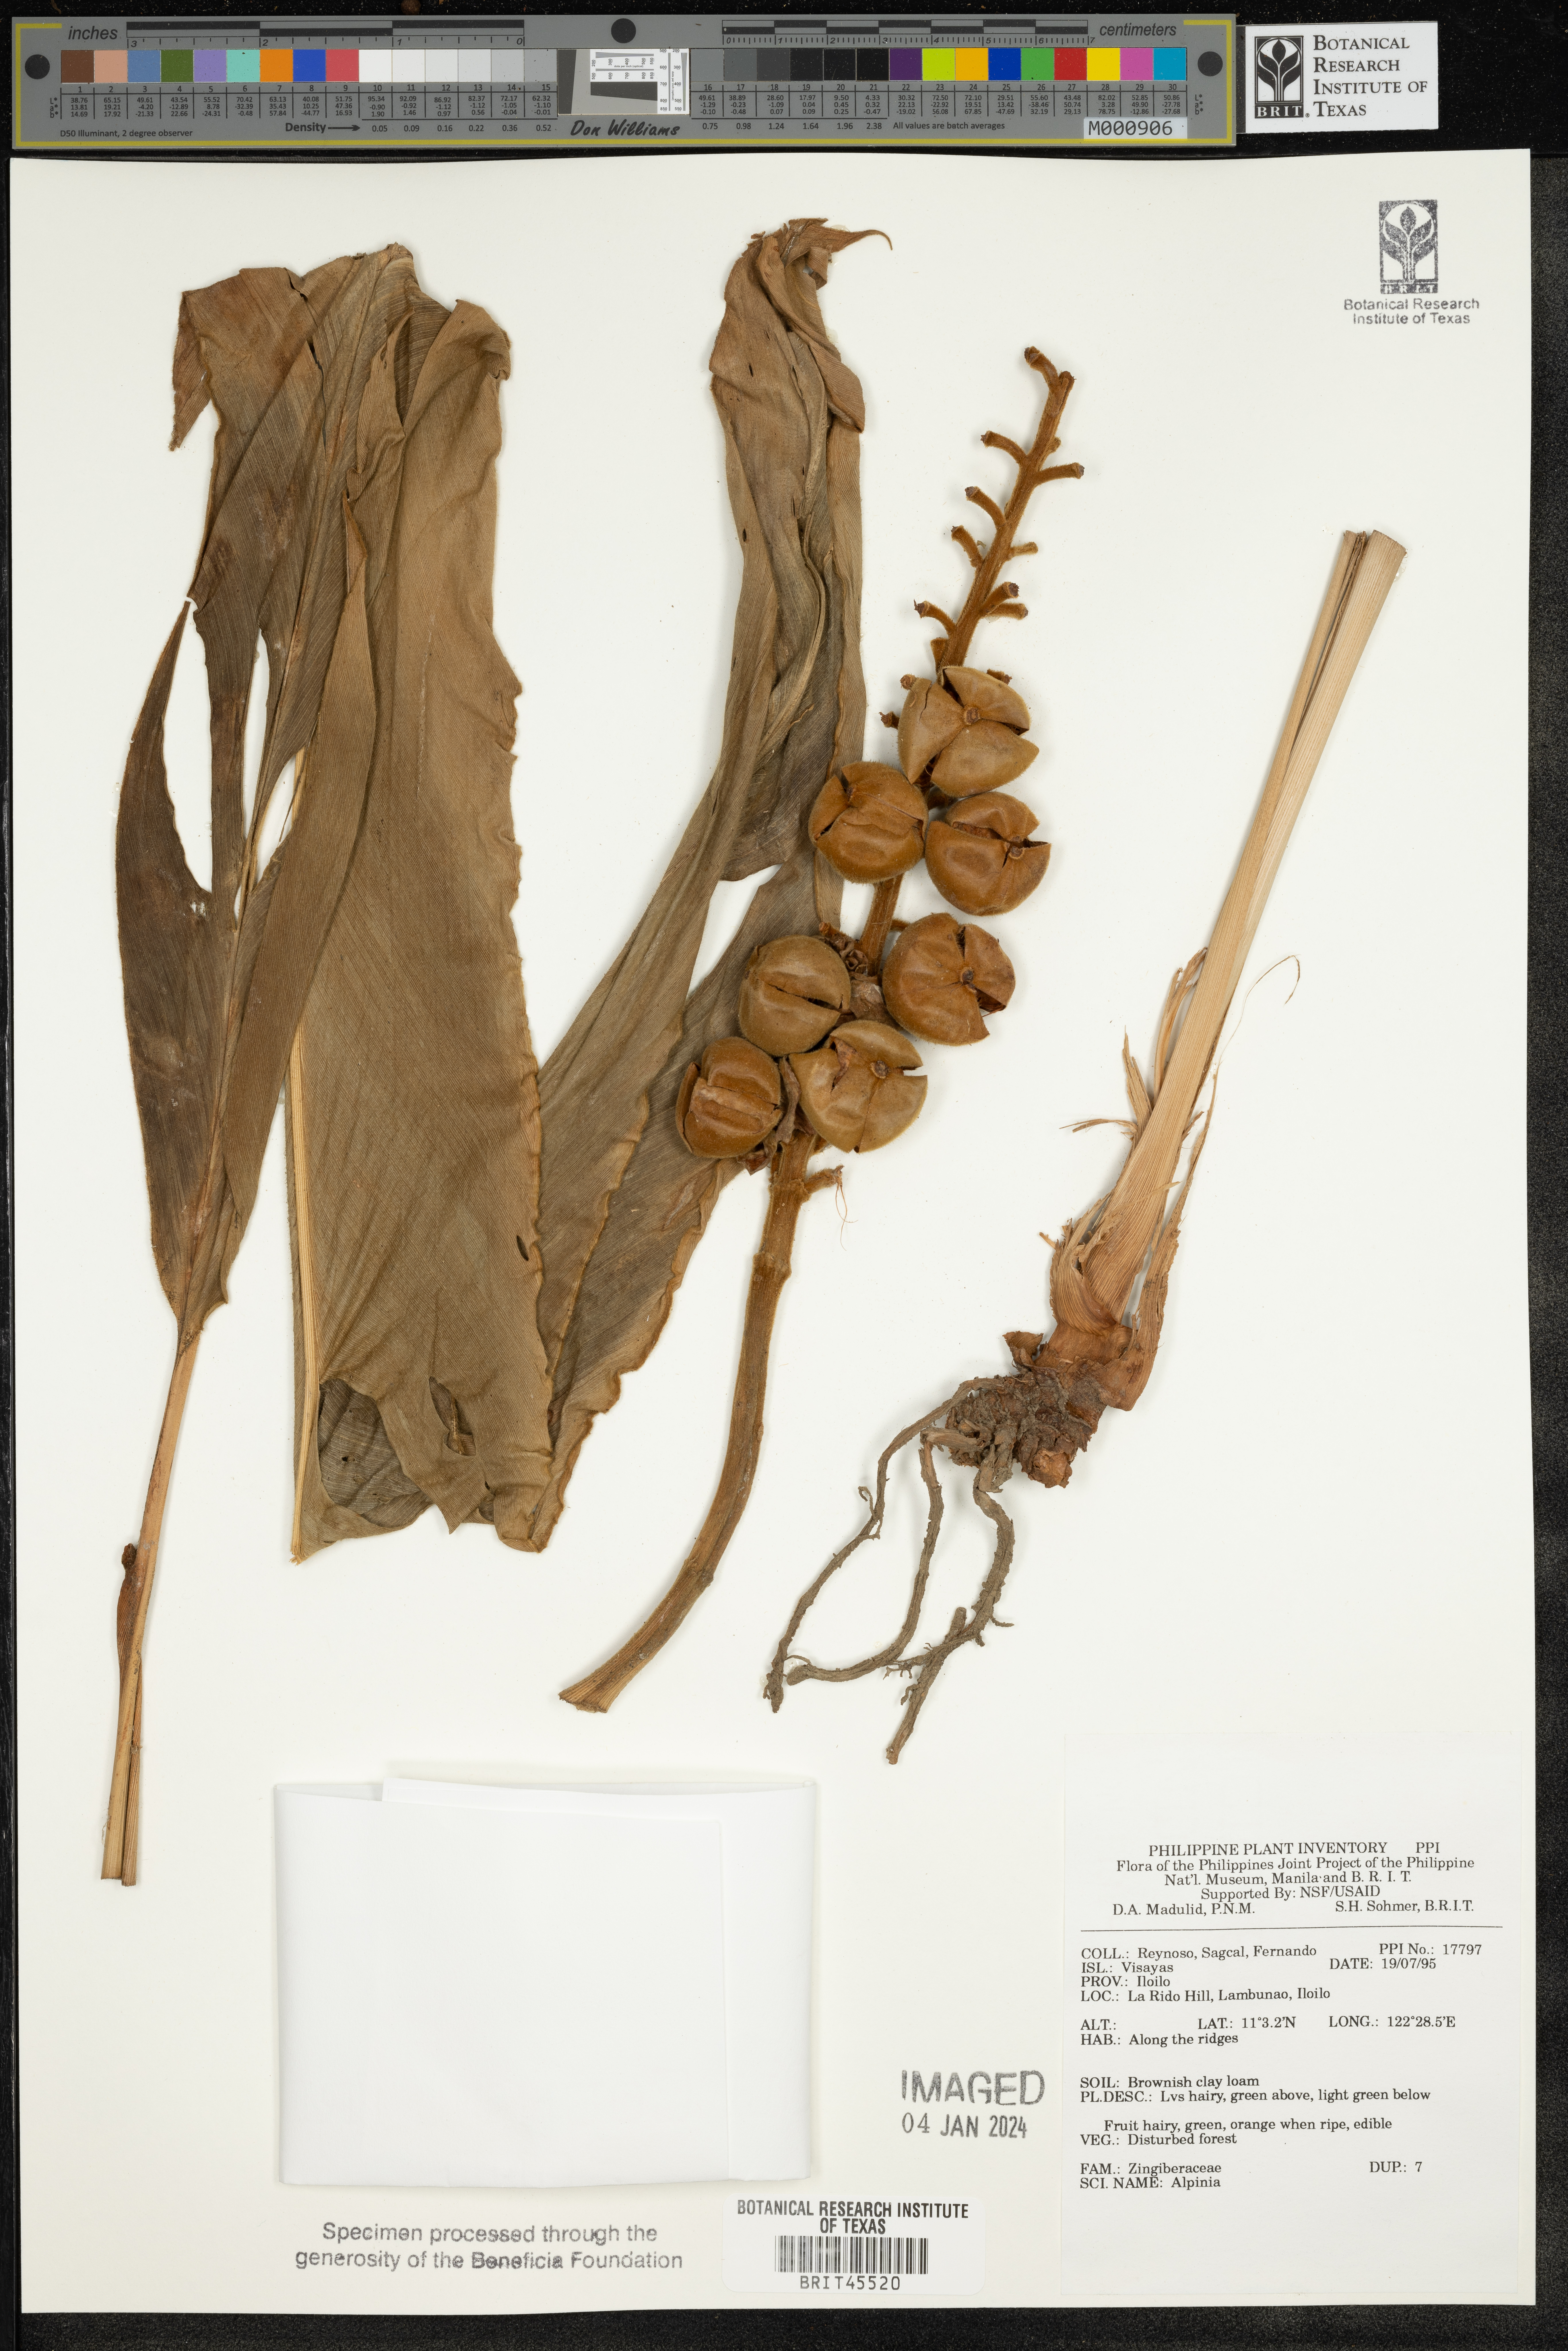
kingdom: Plantae
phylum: Tracheophyta
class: Liliopsida
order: Zingiberales
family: Zingiberaceae
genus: Alpinia
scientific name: Alpinia
